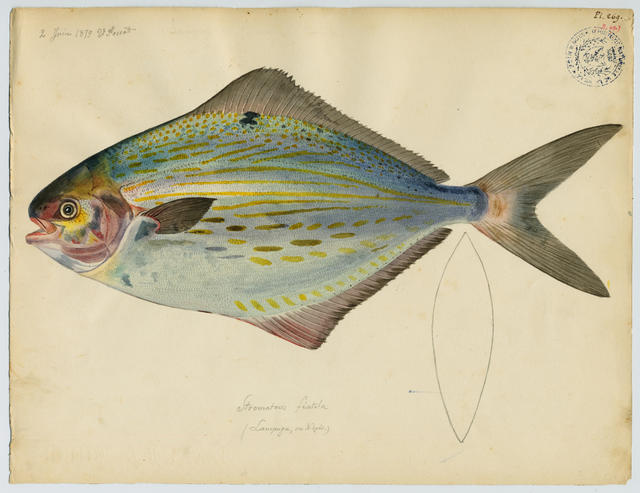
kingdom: Animalia
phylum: Chordata
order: Perciformes
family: Stromateidae
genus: Stromateus
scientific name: Stromateus fiatola
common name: Blue butterfish
